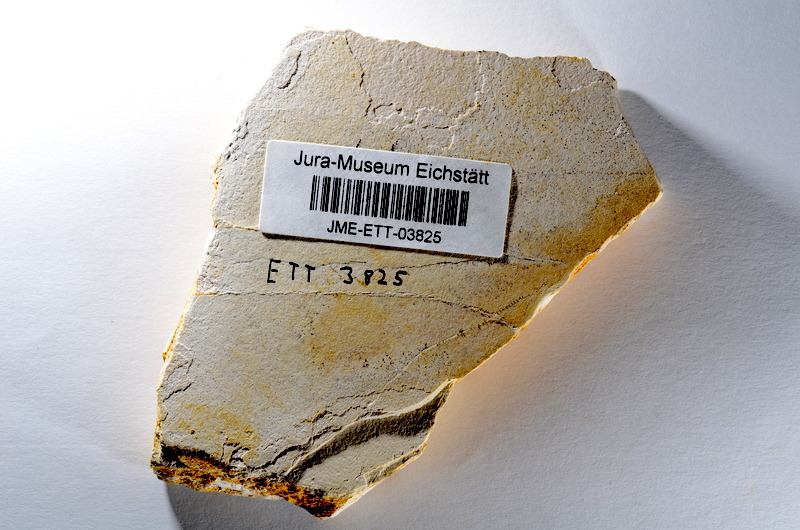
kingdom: Animalia
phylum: Chordata
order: Salmoniformes
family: Orthogonikleithridae
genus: Orthogonikleithrus
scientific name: Orthogonikleithrus hoelli
